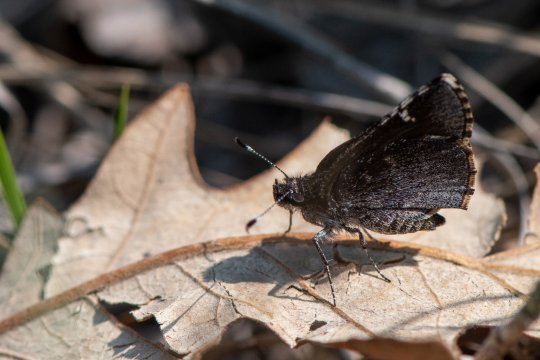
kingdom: Animalia
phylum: Arthropoda
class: Insecta
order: Lepidoptera
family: Hesperiidae
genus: Mastor
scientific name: Mastor vialis
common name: Common Roadside-Skipper
